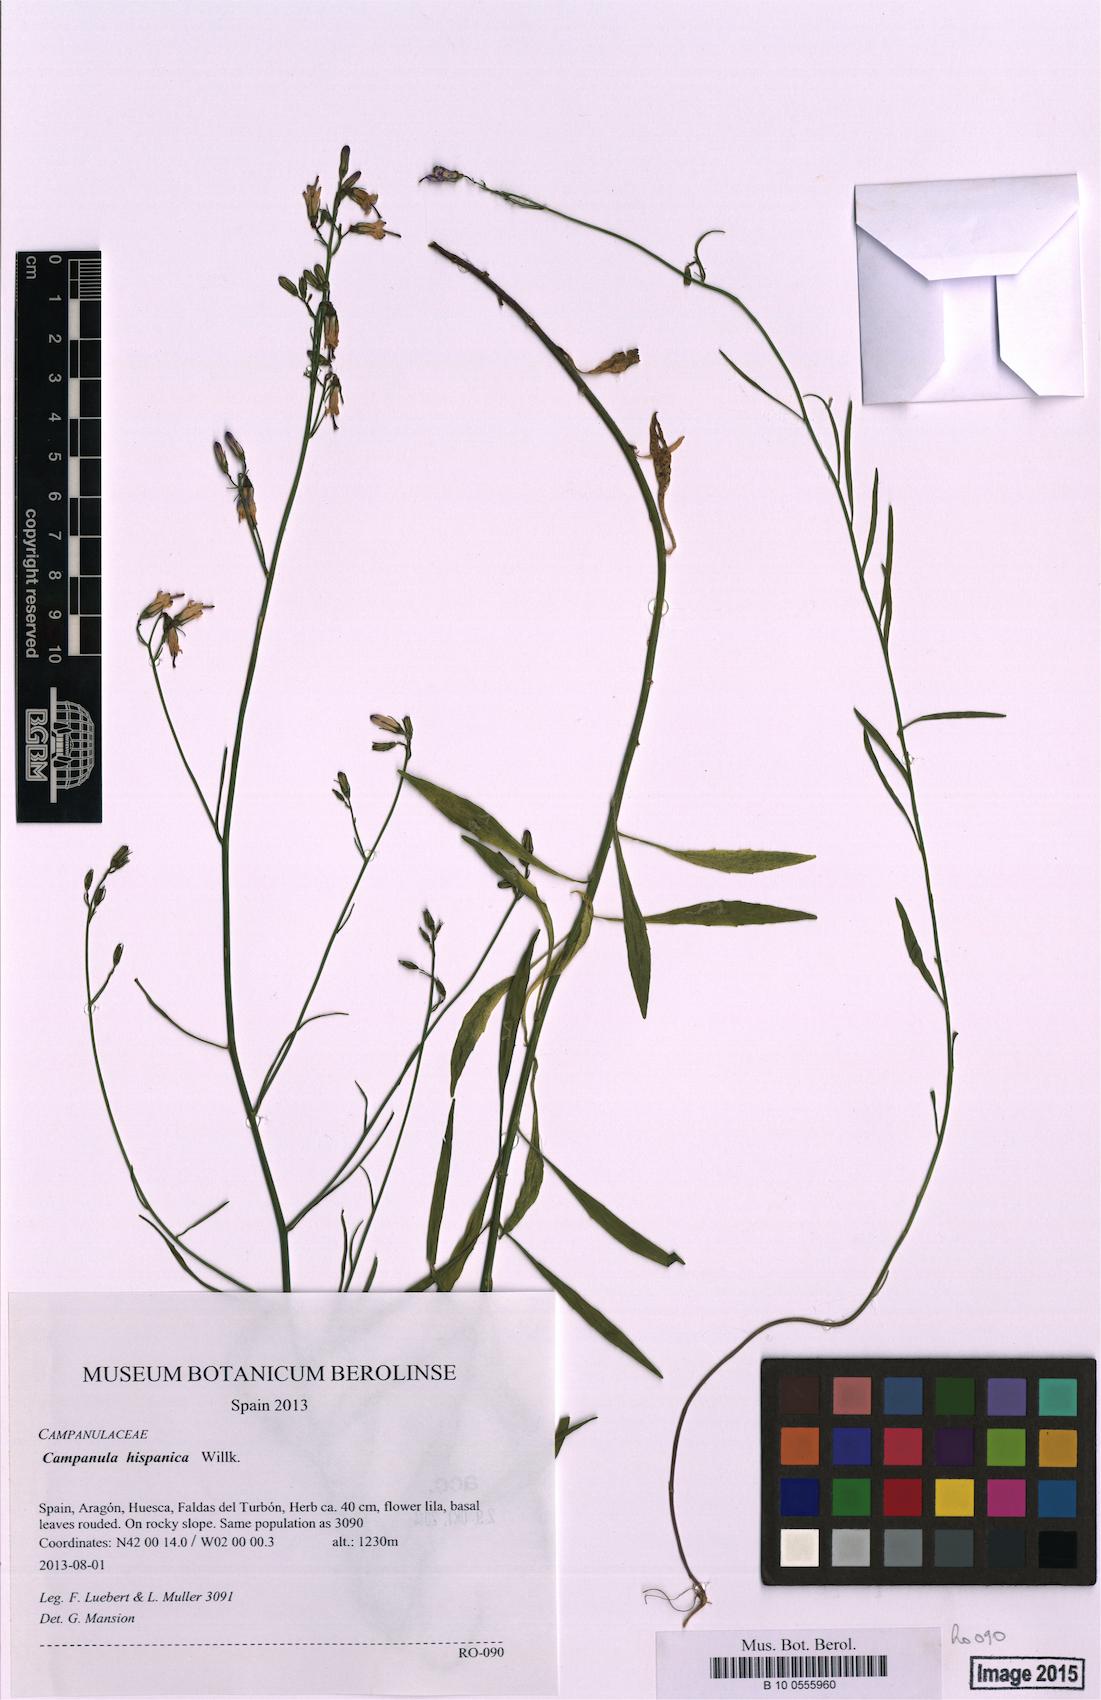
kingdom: Plantae
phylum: Tracheophyta
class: Magnoliopsida
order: Asterales
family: Campanulaceae
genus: Campanula
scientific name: Campanula hispanica
